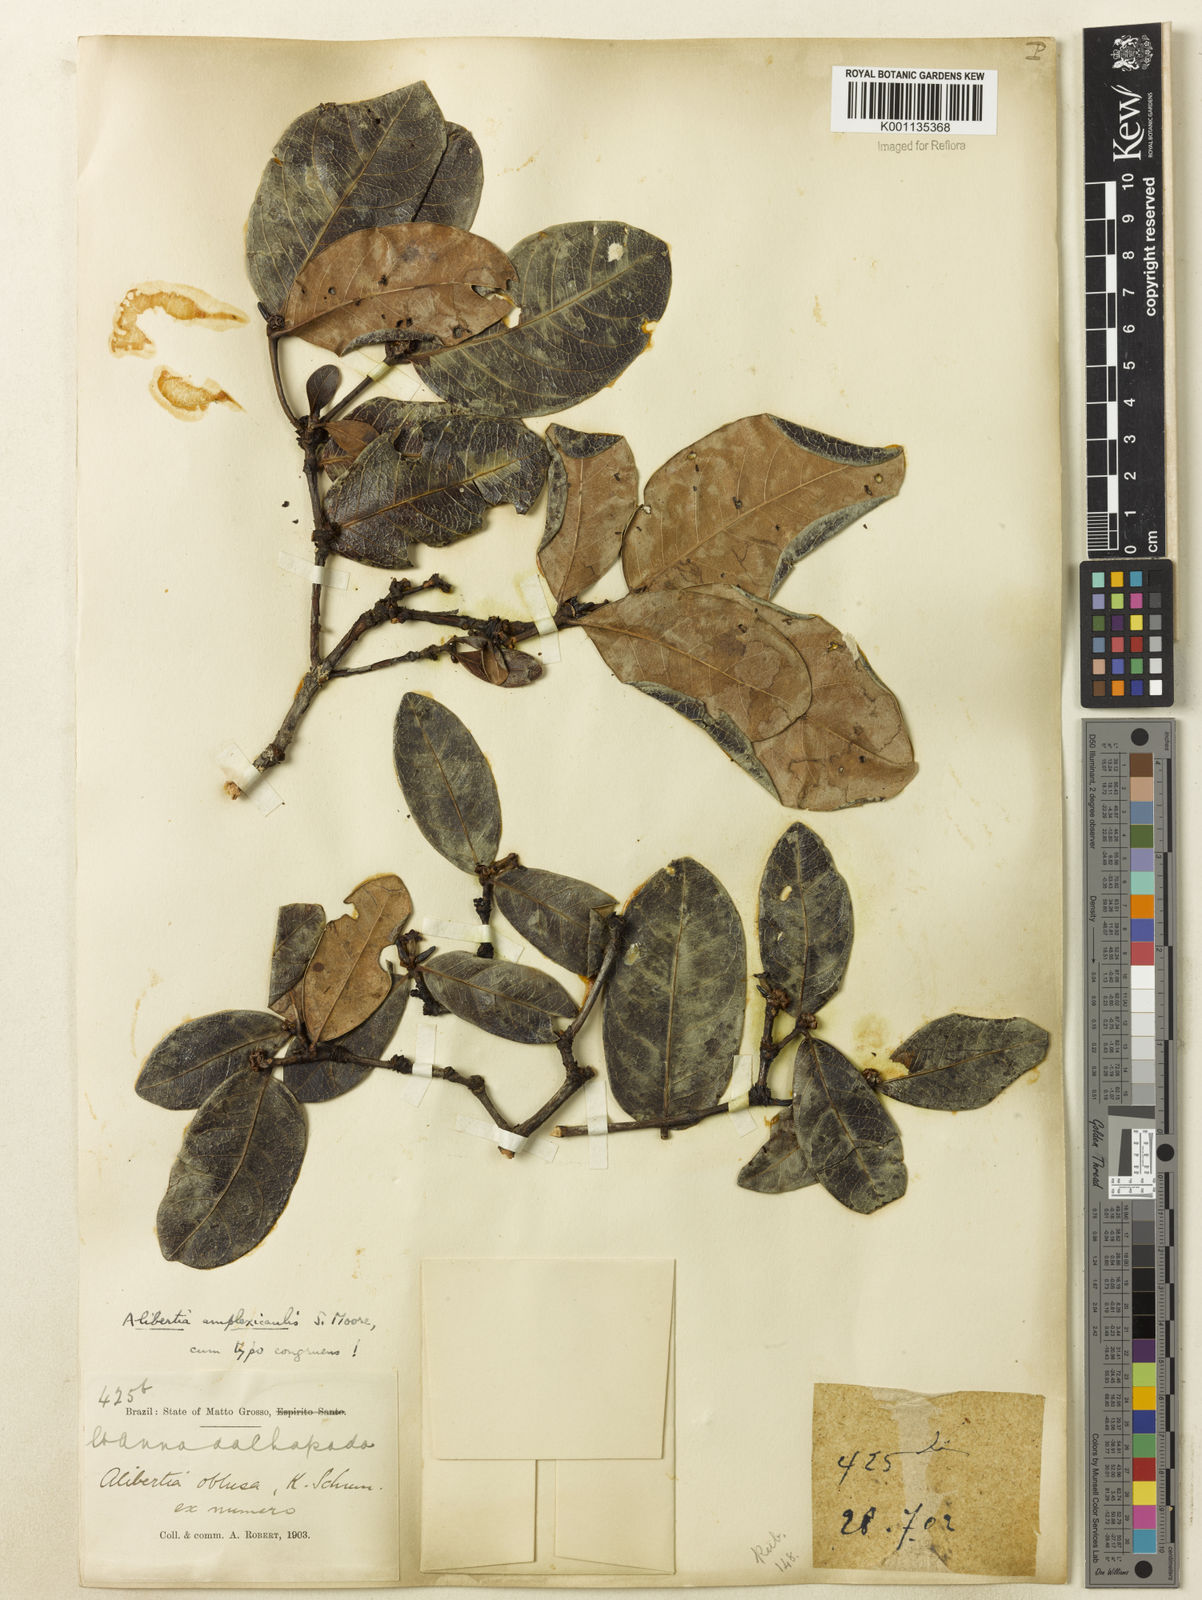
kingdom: Plantae
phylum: Tracheophyta
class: Magnoliopsida
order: Gentianales
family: Rubiaceae
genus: Cordiera
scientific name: Cordiera humilis
